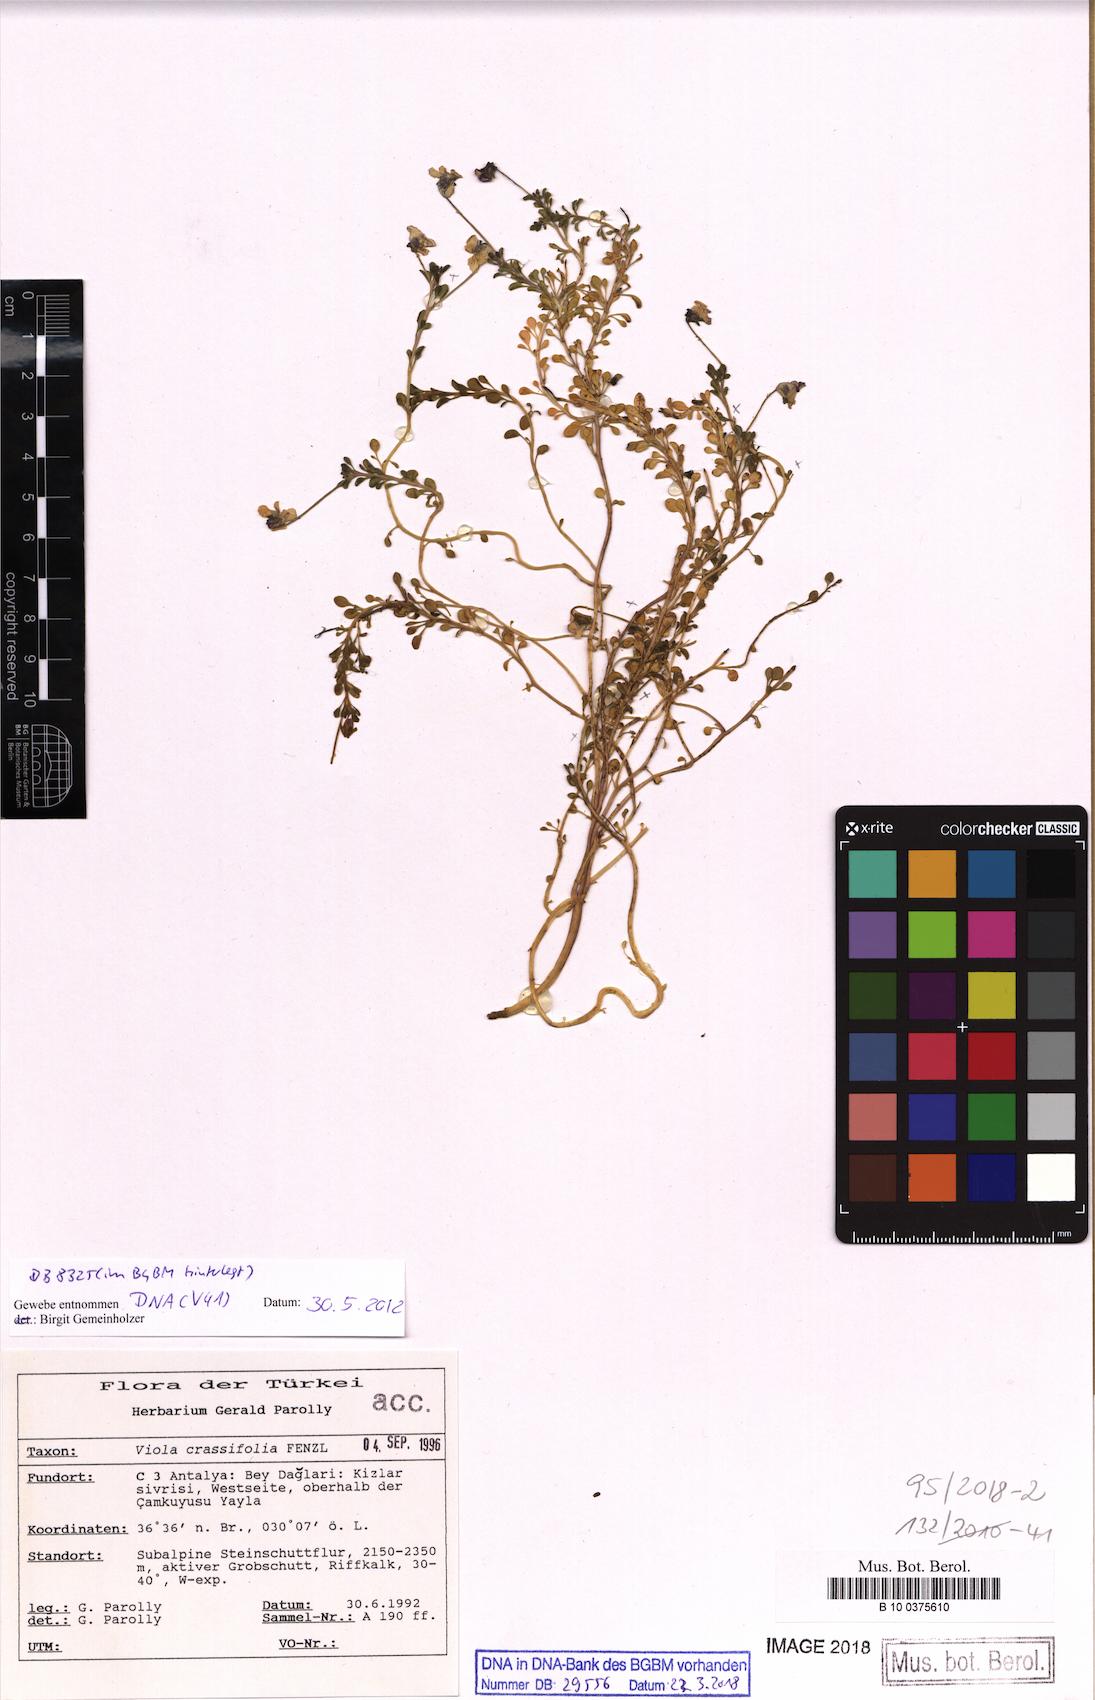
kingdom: Plantae
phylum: Tracheophyta
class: Magnoliopsida
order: Malpighiales
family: Violaceae
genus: Viola
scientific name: Viola crassifolia
